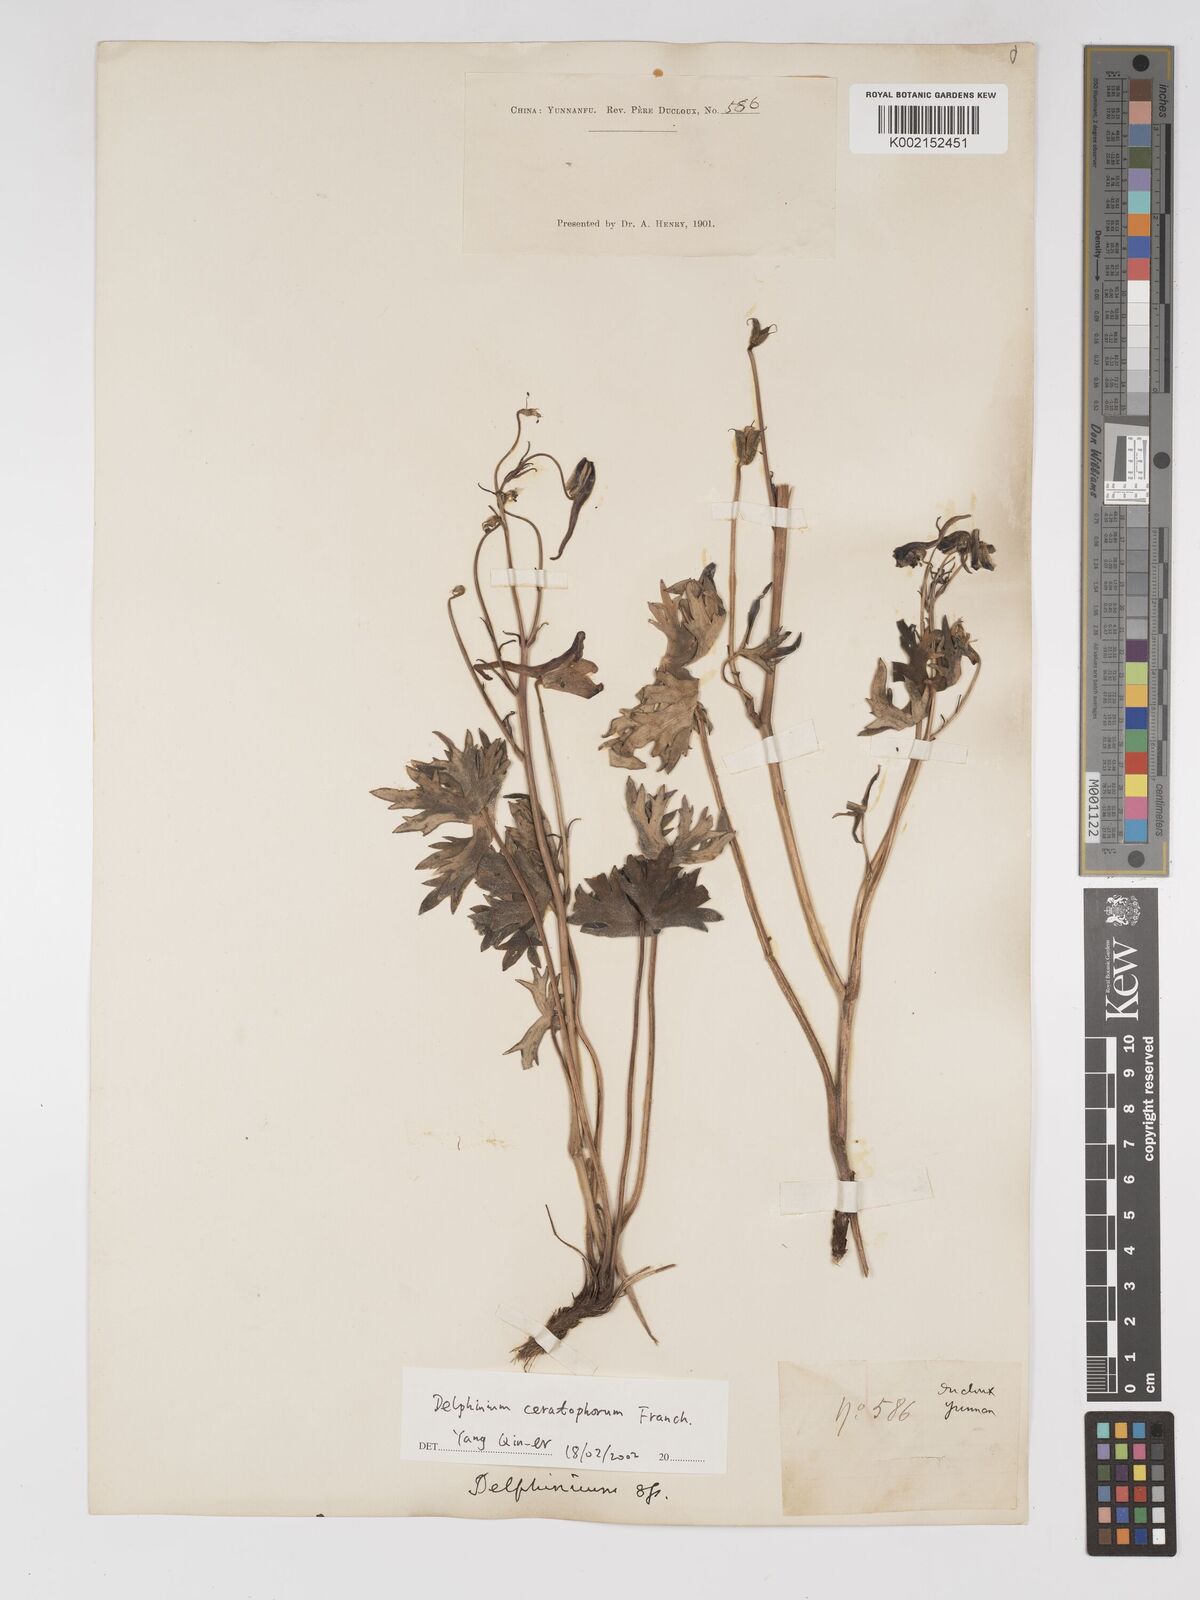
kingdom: Plantae
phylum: Tracheophyta
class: Magnoliopsida
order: Ranunculales
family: Ranunculaceae
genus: Delphinium
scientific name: Delphinium ceratophorum
